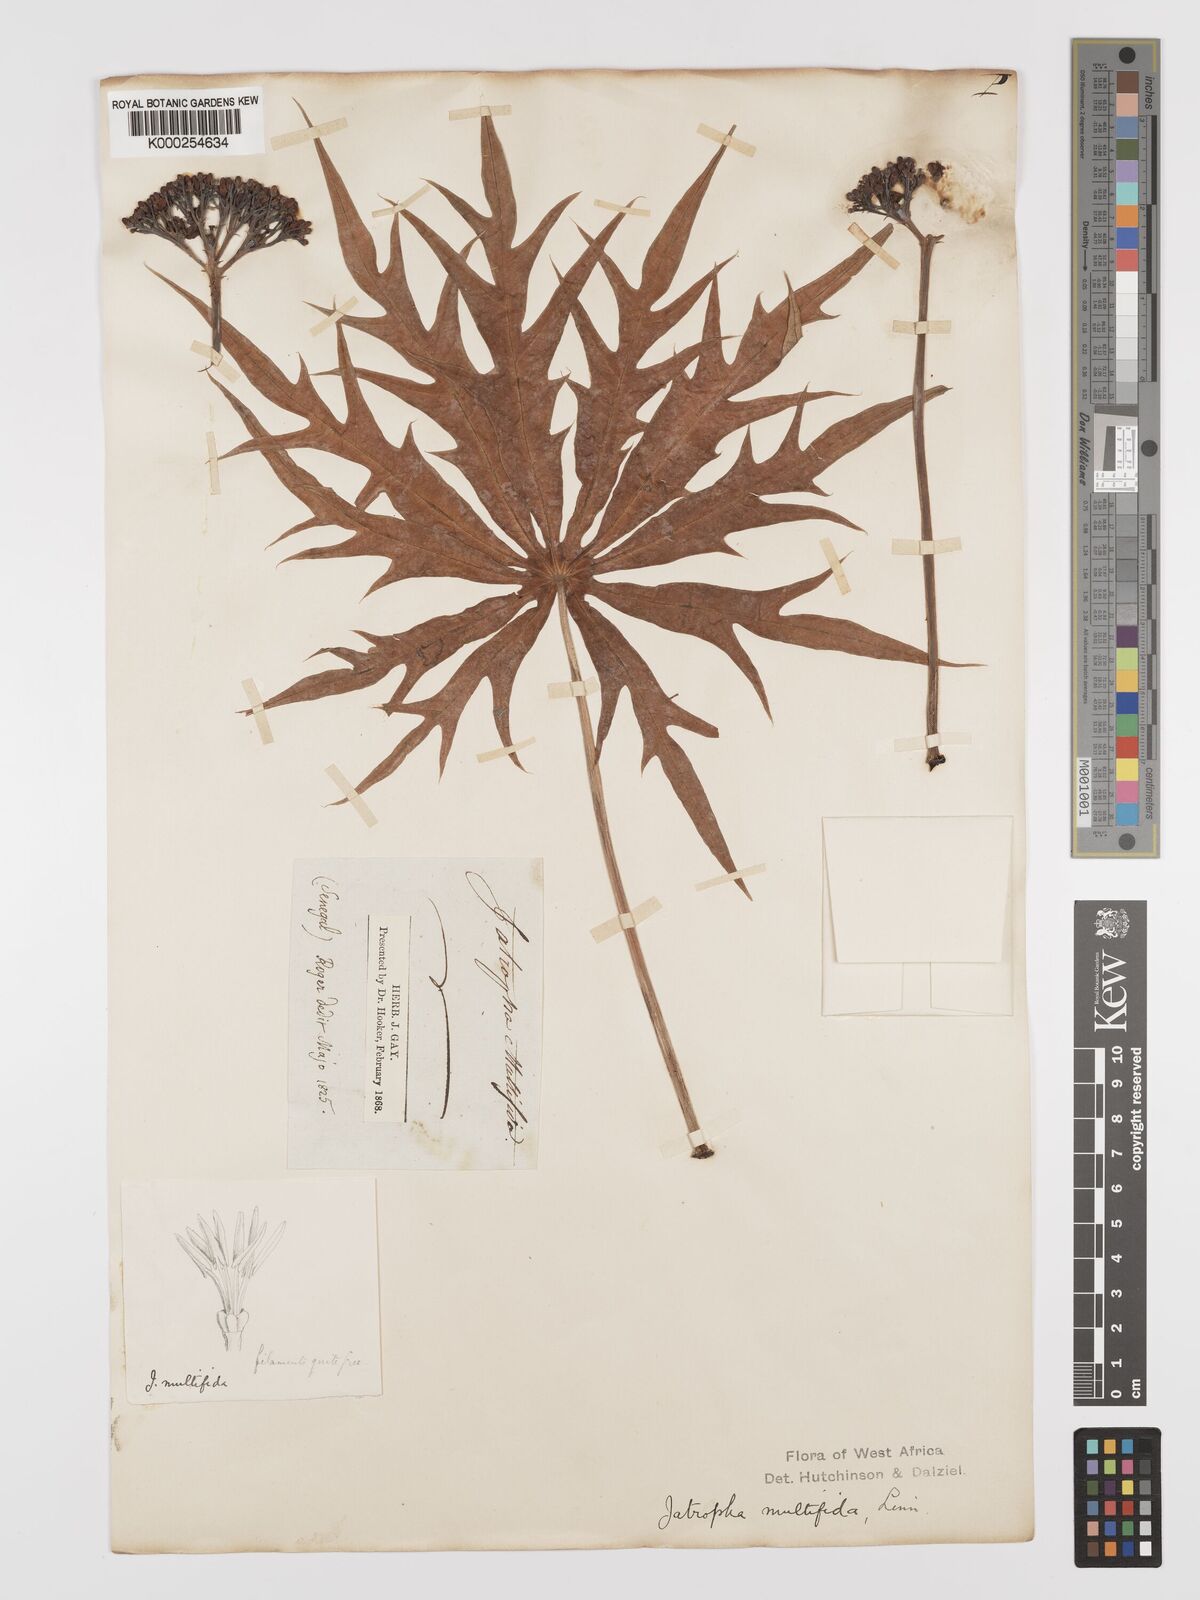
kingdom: Plantae
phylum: Tracheophyta
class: Magnoliopsida
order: Malpighiales
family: Euphorbiaceae
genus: Jatropha
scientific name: Jatropha multifida
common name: Coralbush
